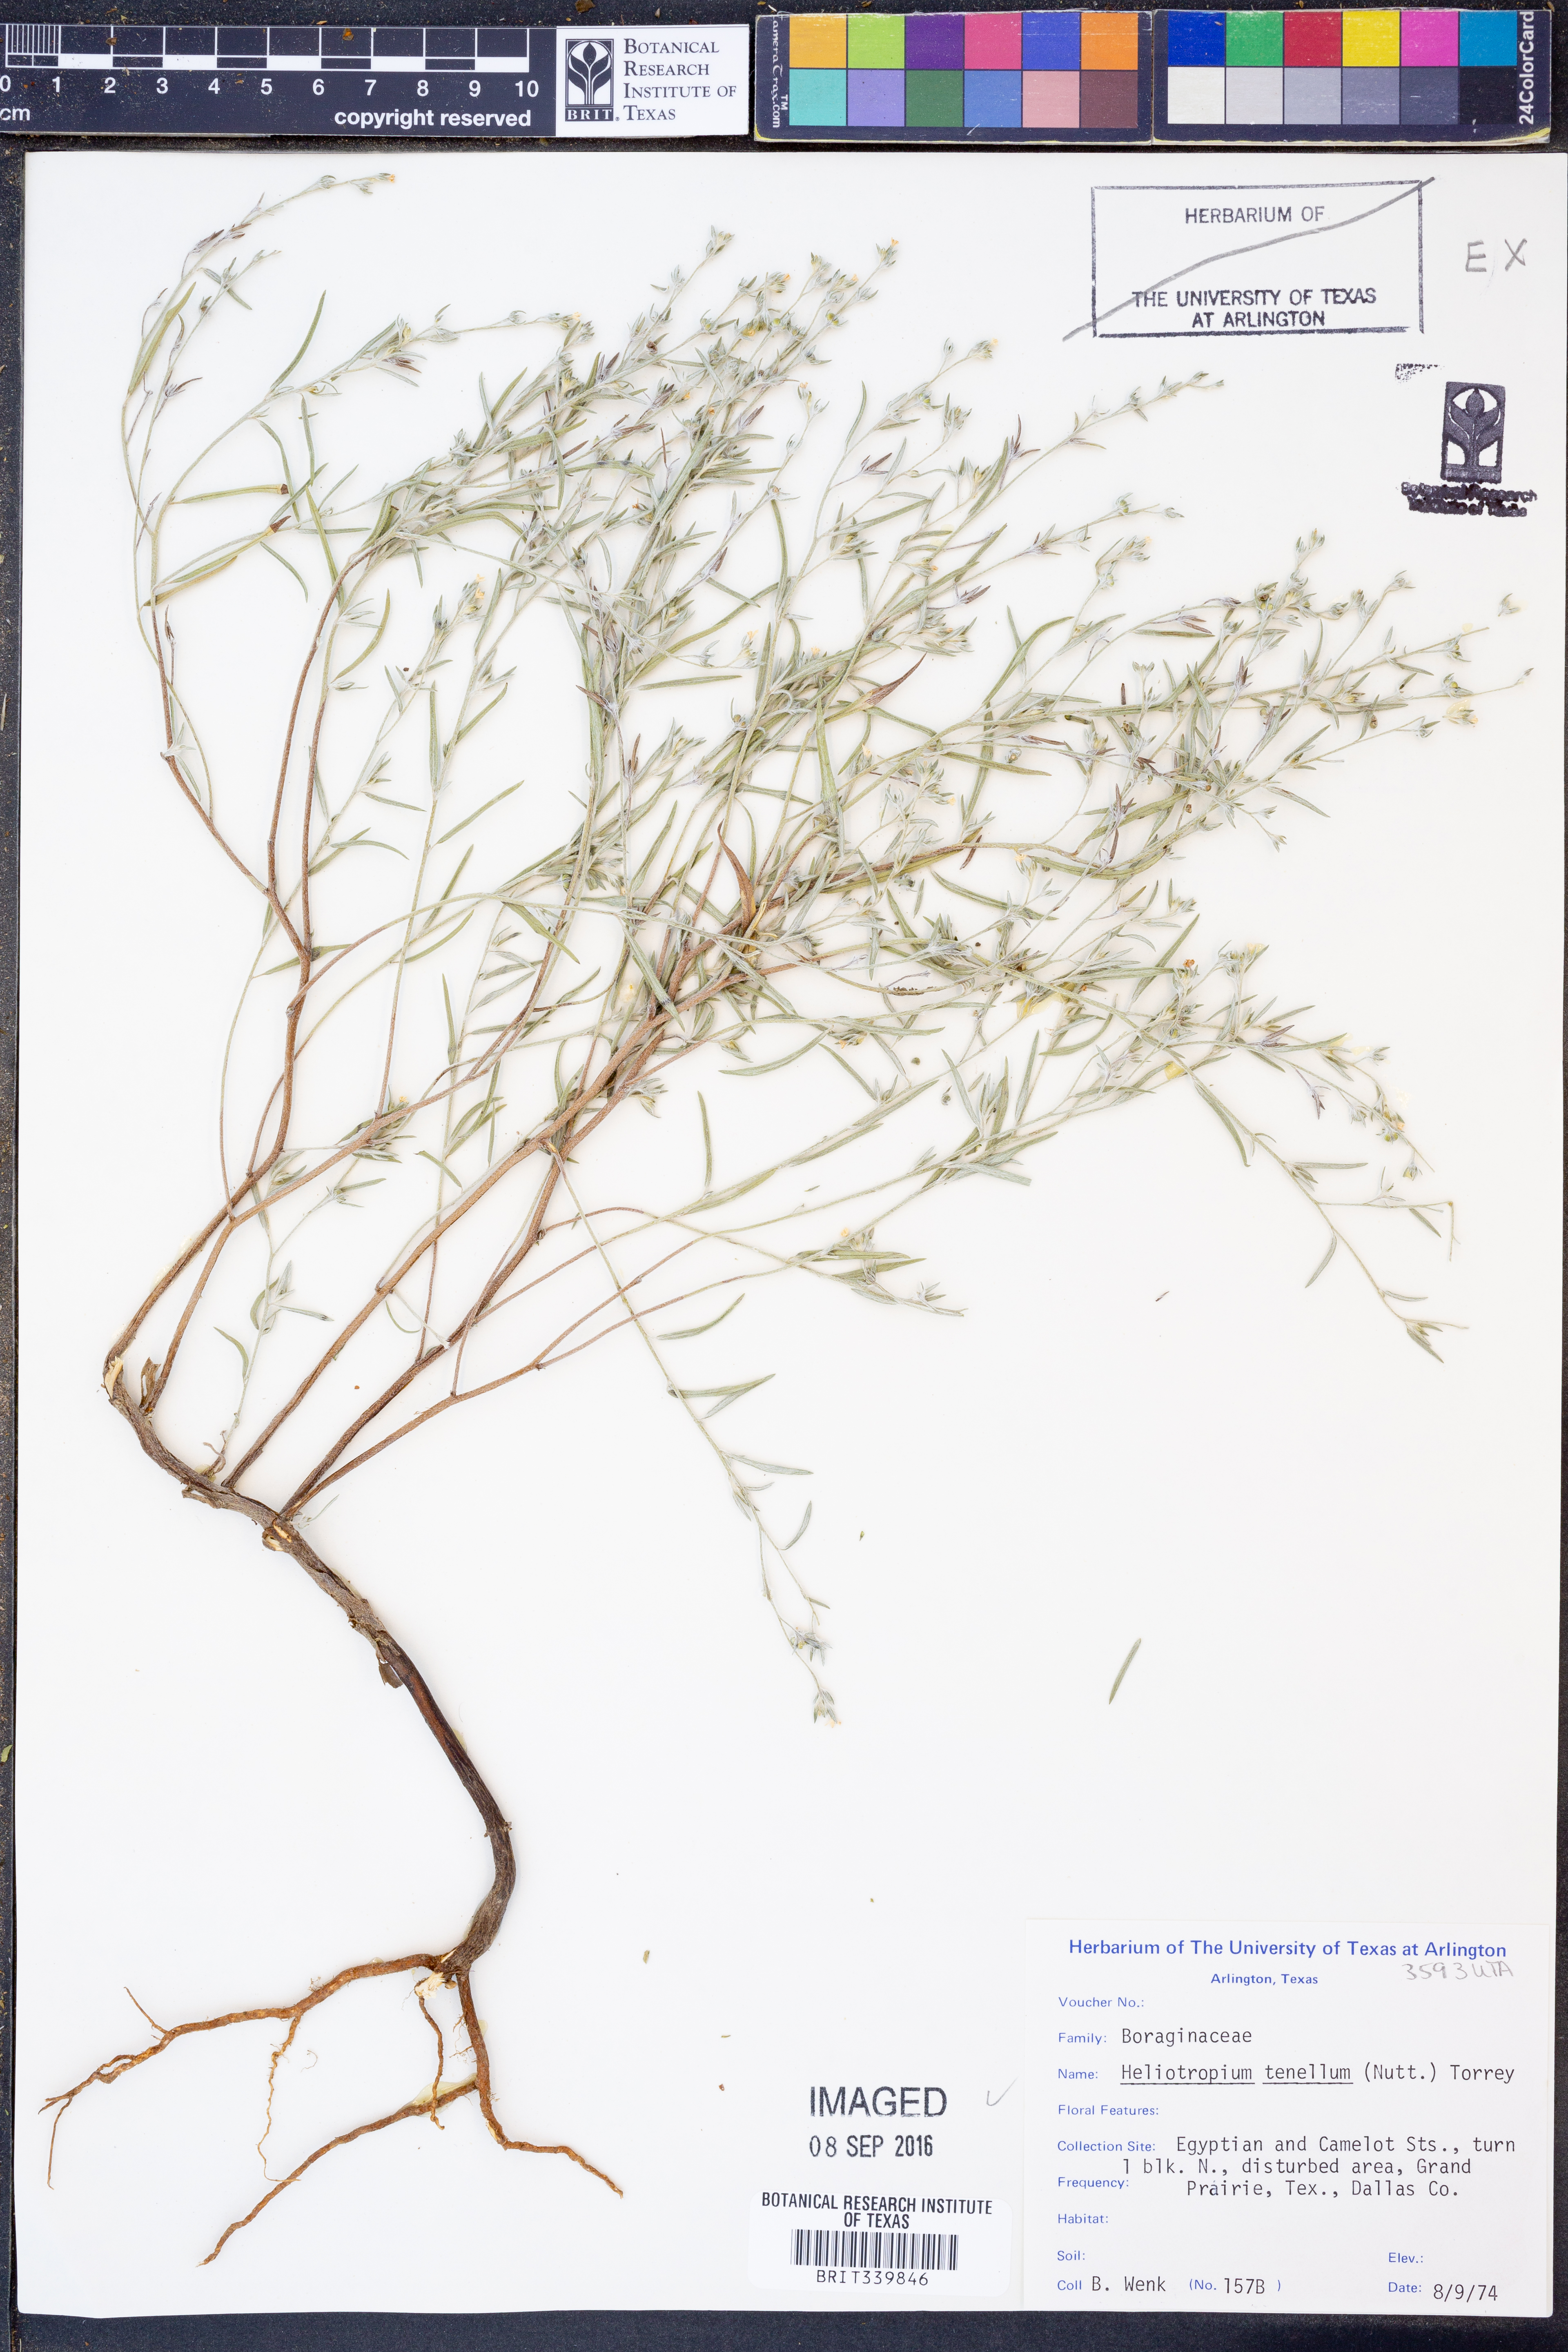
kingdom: Plantae
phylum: Tracheophyta
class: Magnoliopsida
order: Boraginales
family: Heliotropiaceae
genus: Euploca
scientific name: Euploca tenella
